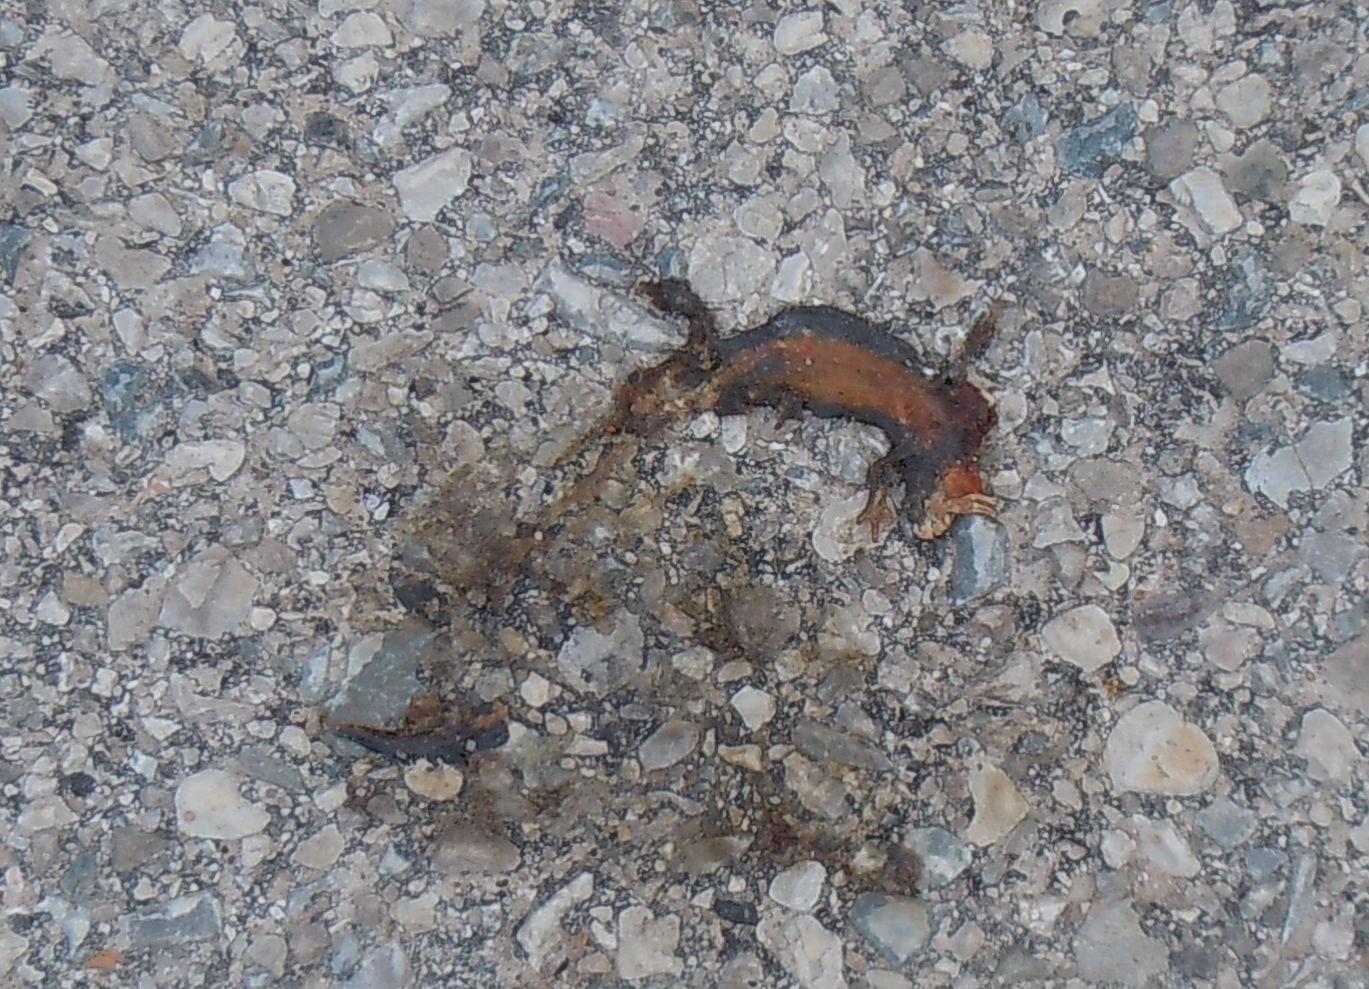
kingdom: Animalia
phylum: Chordata
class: Amphibia
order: Caudata
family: Salamandridae
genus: Ichthyosaura
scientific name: Ichthyosaura alpestris
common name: Alpine newt
